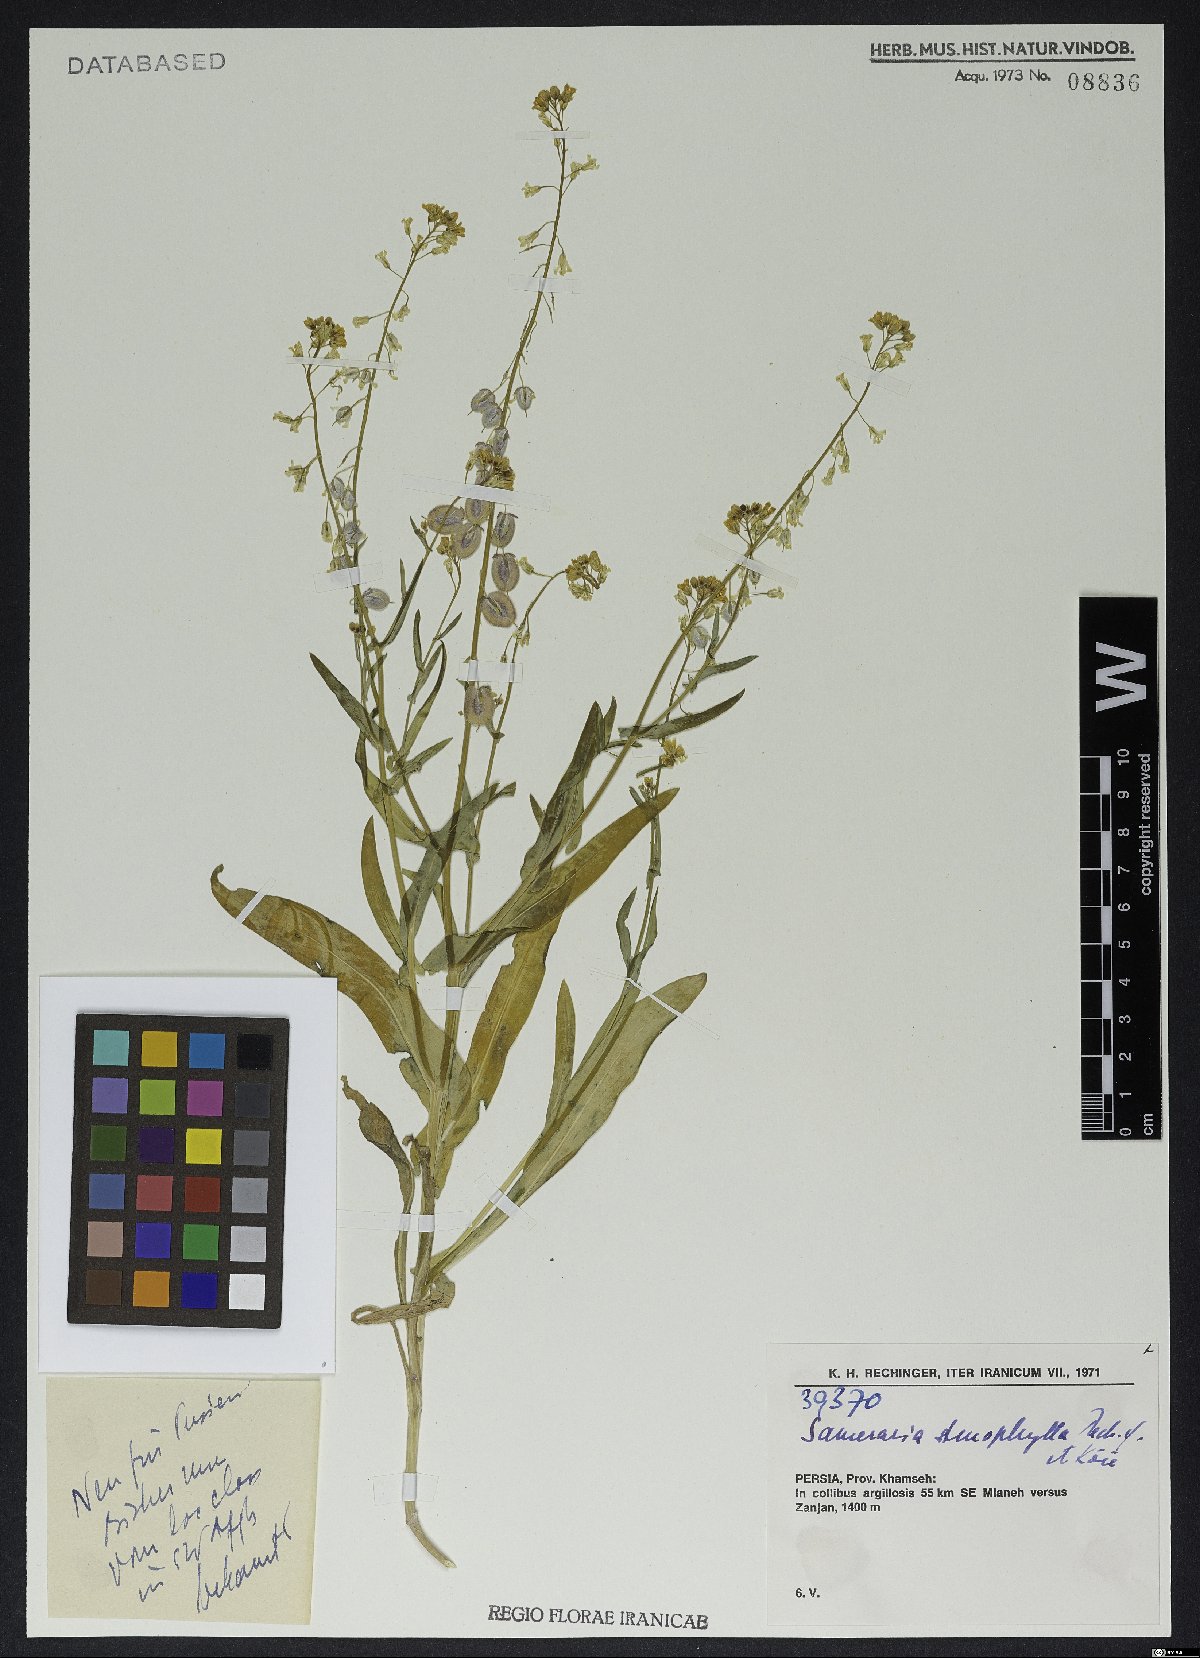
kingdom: Plantae
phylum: Tracheophyta
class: Magnoliopsida
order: Brassicales
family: Brassicaceae
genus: Isatis
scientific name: Isatis elegans
